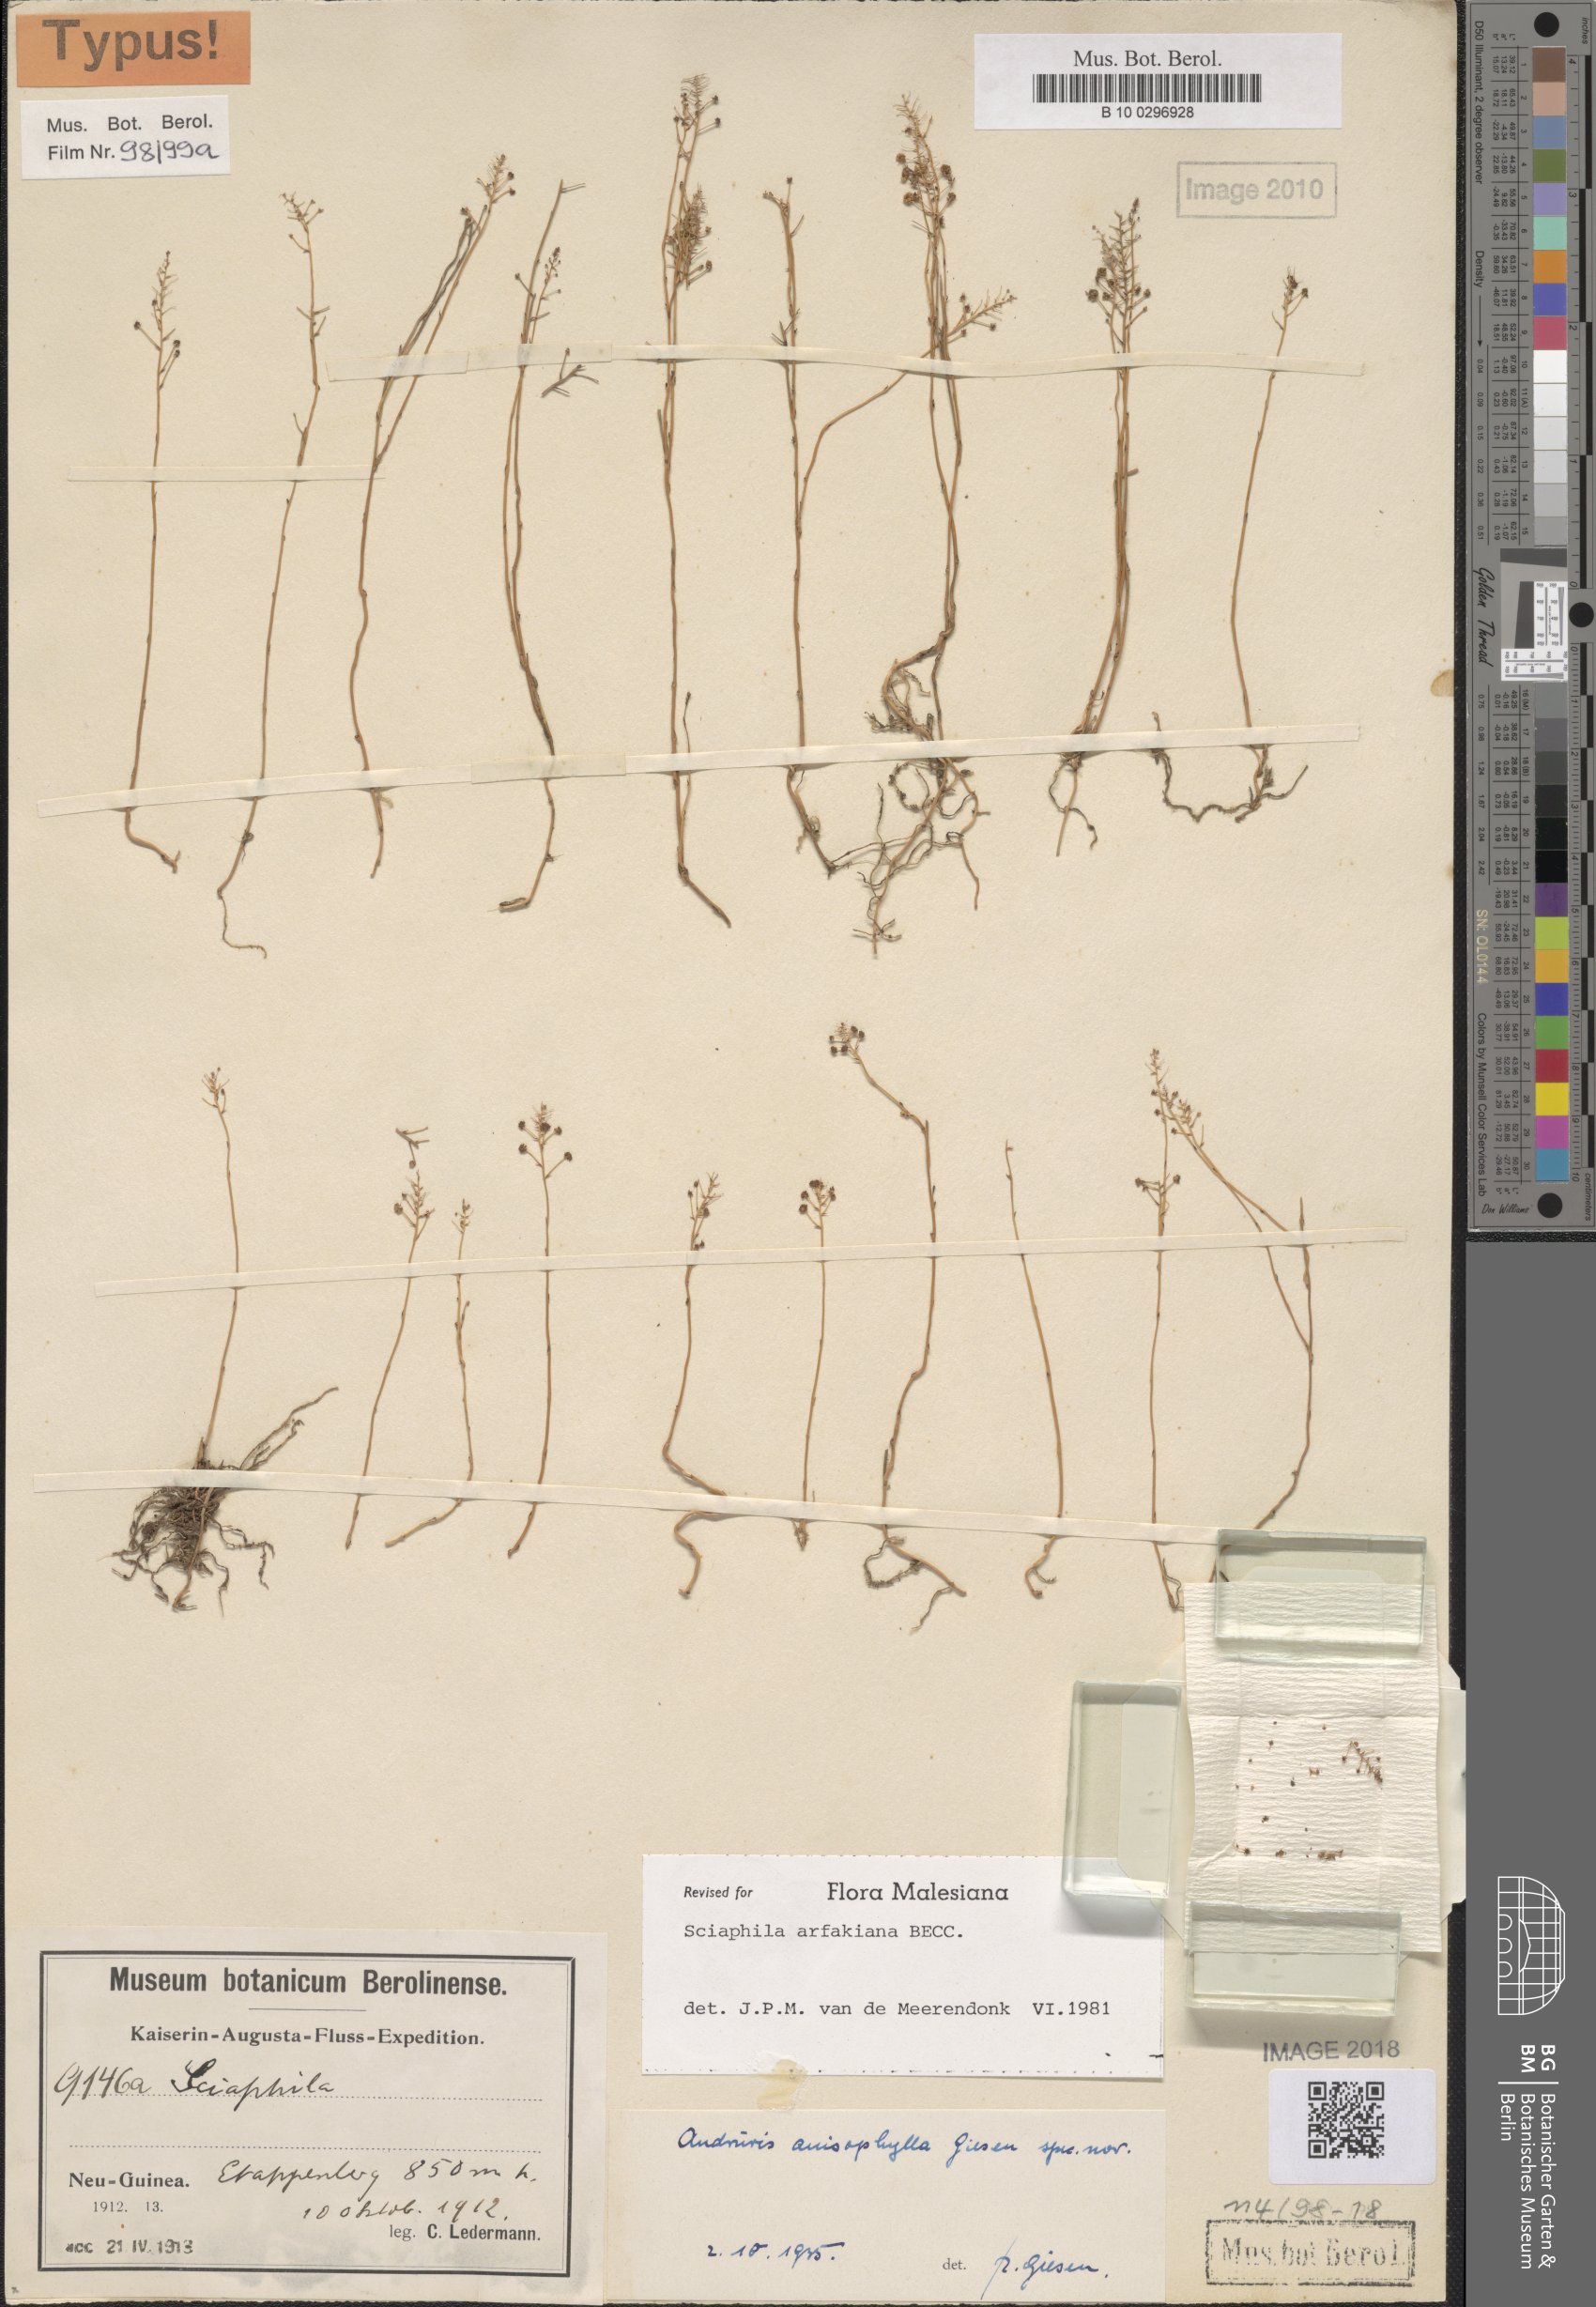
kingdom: Plantae
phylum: Tracheophyta
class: Liliopsida
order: Pandanales
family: Triuridaceae
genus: Sciaphila
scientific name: Sciaphila arfakiana
